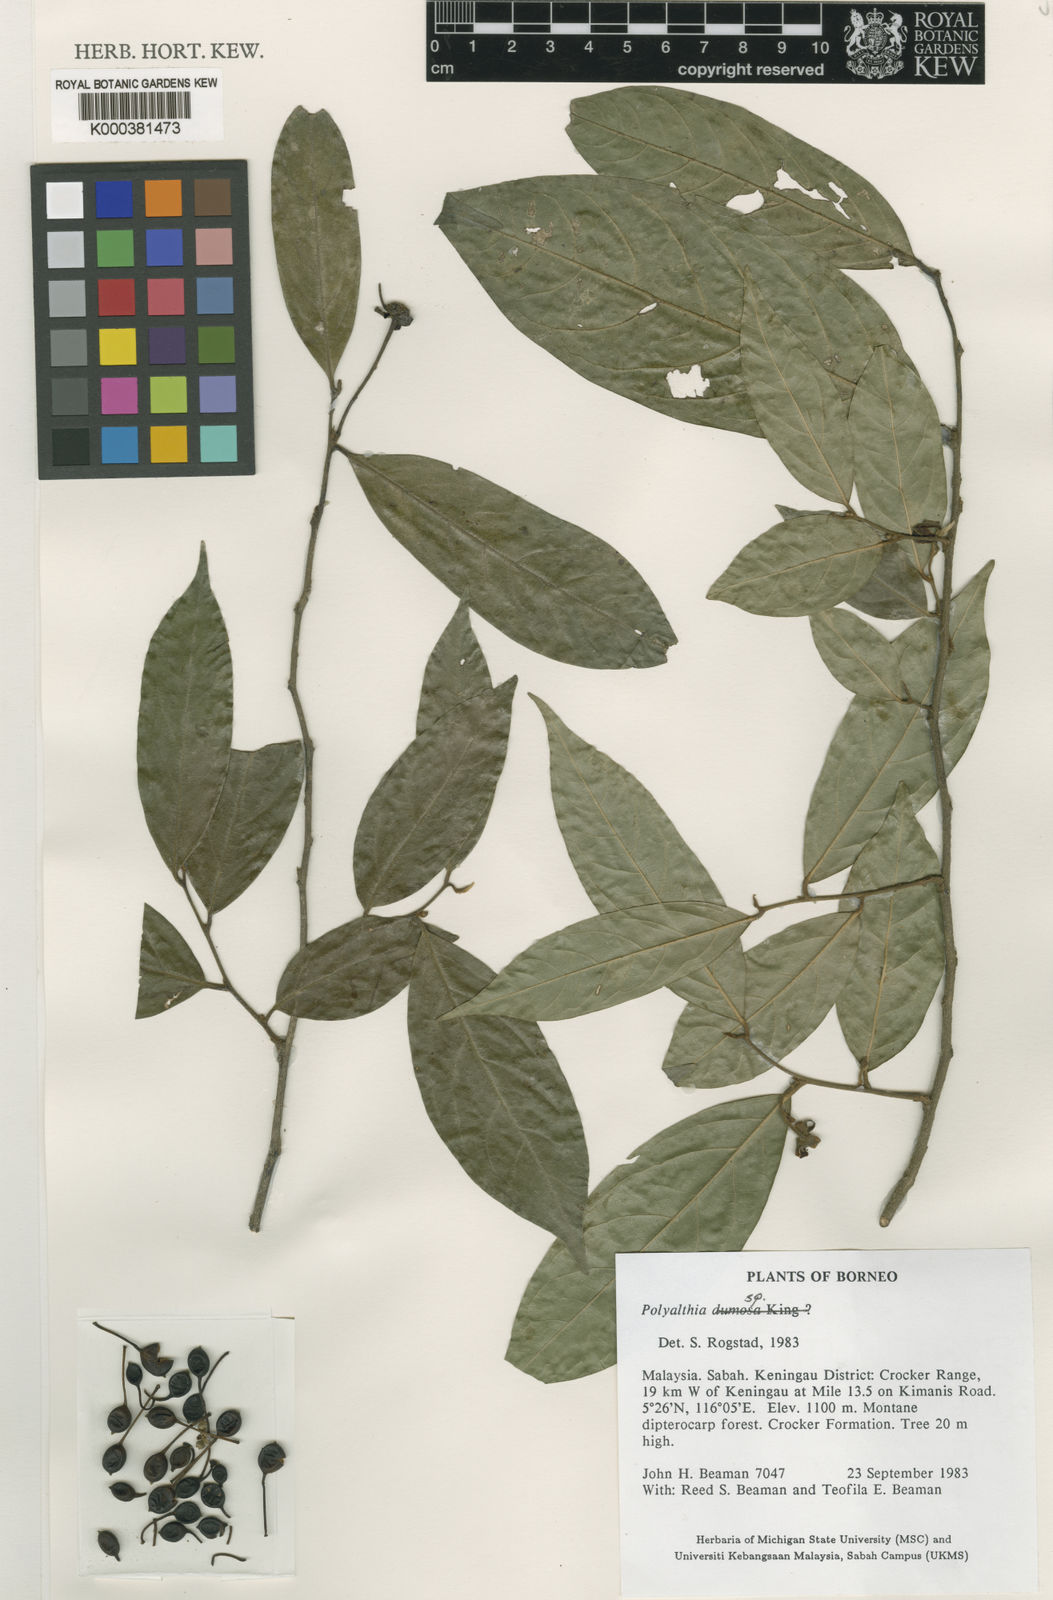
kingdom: Plantae
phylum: Tracheophyta
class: Magnoliopsida
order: Magnoliales
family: Annonaceae
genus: Polyalthia
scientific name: Polyalthia beamaniorum
